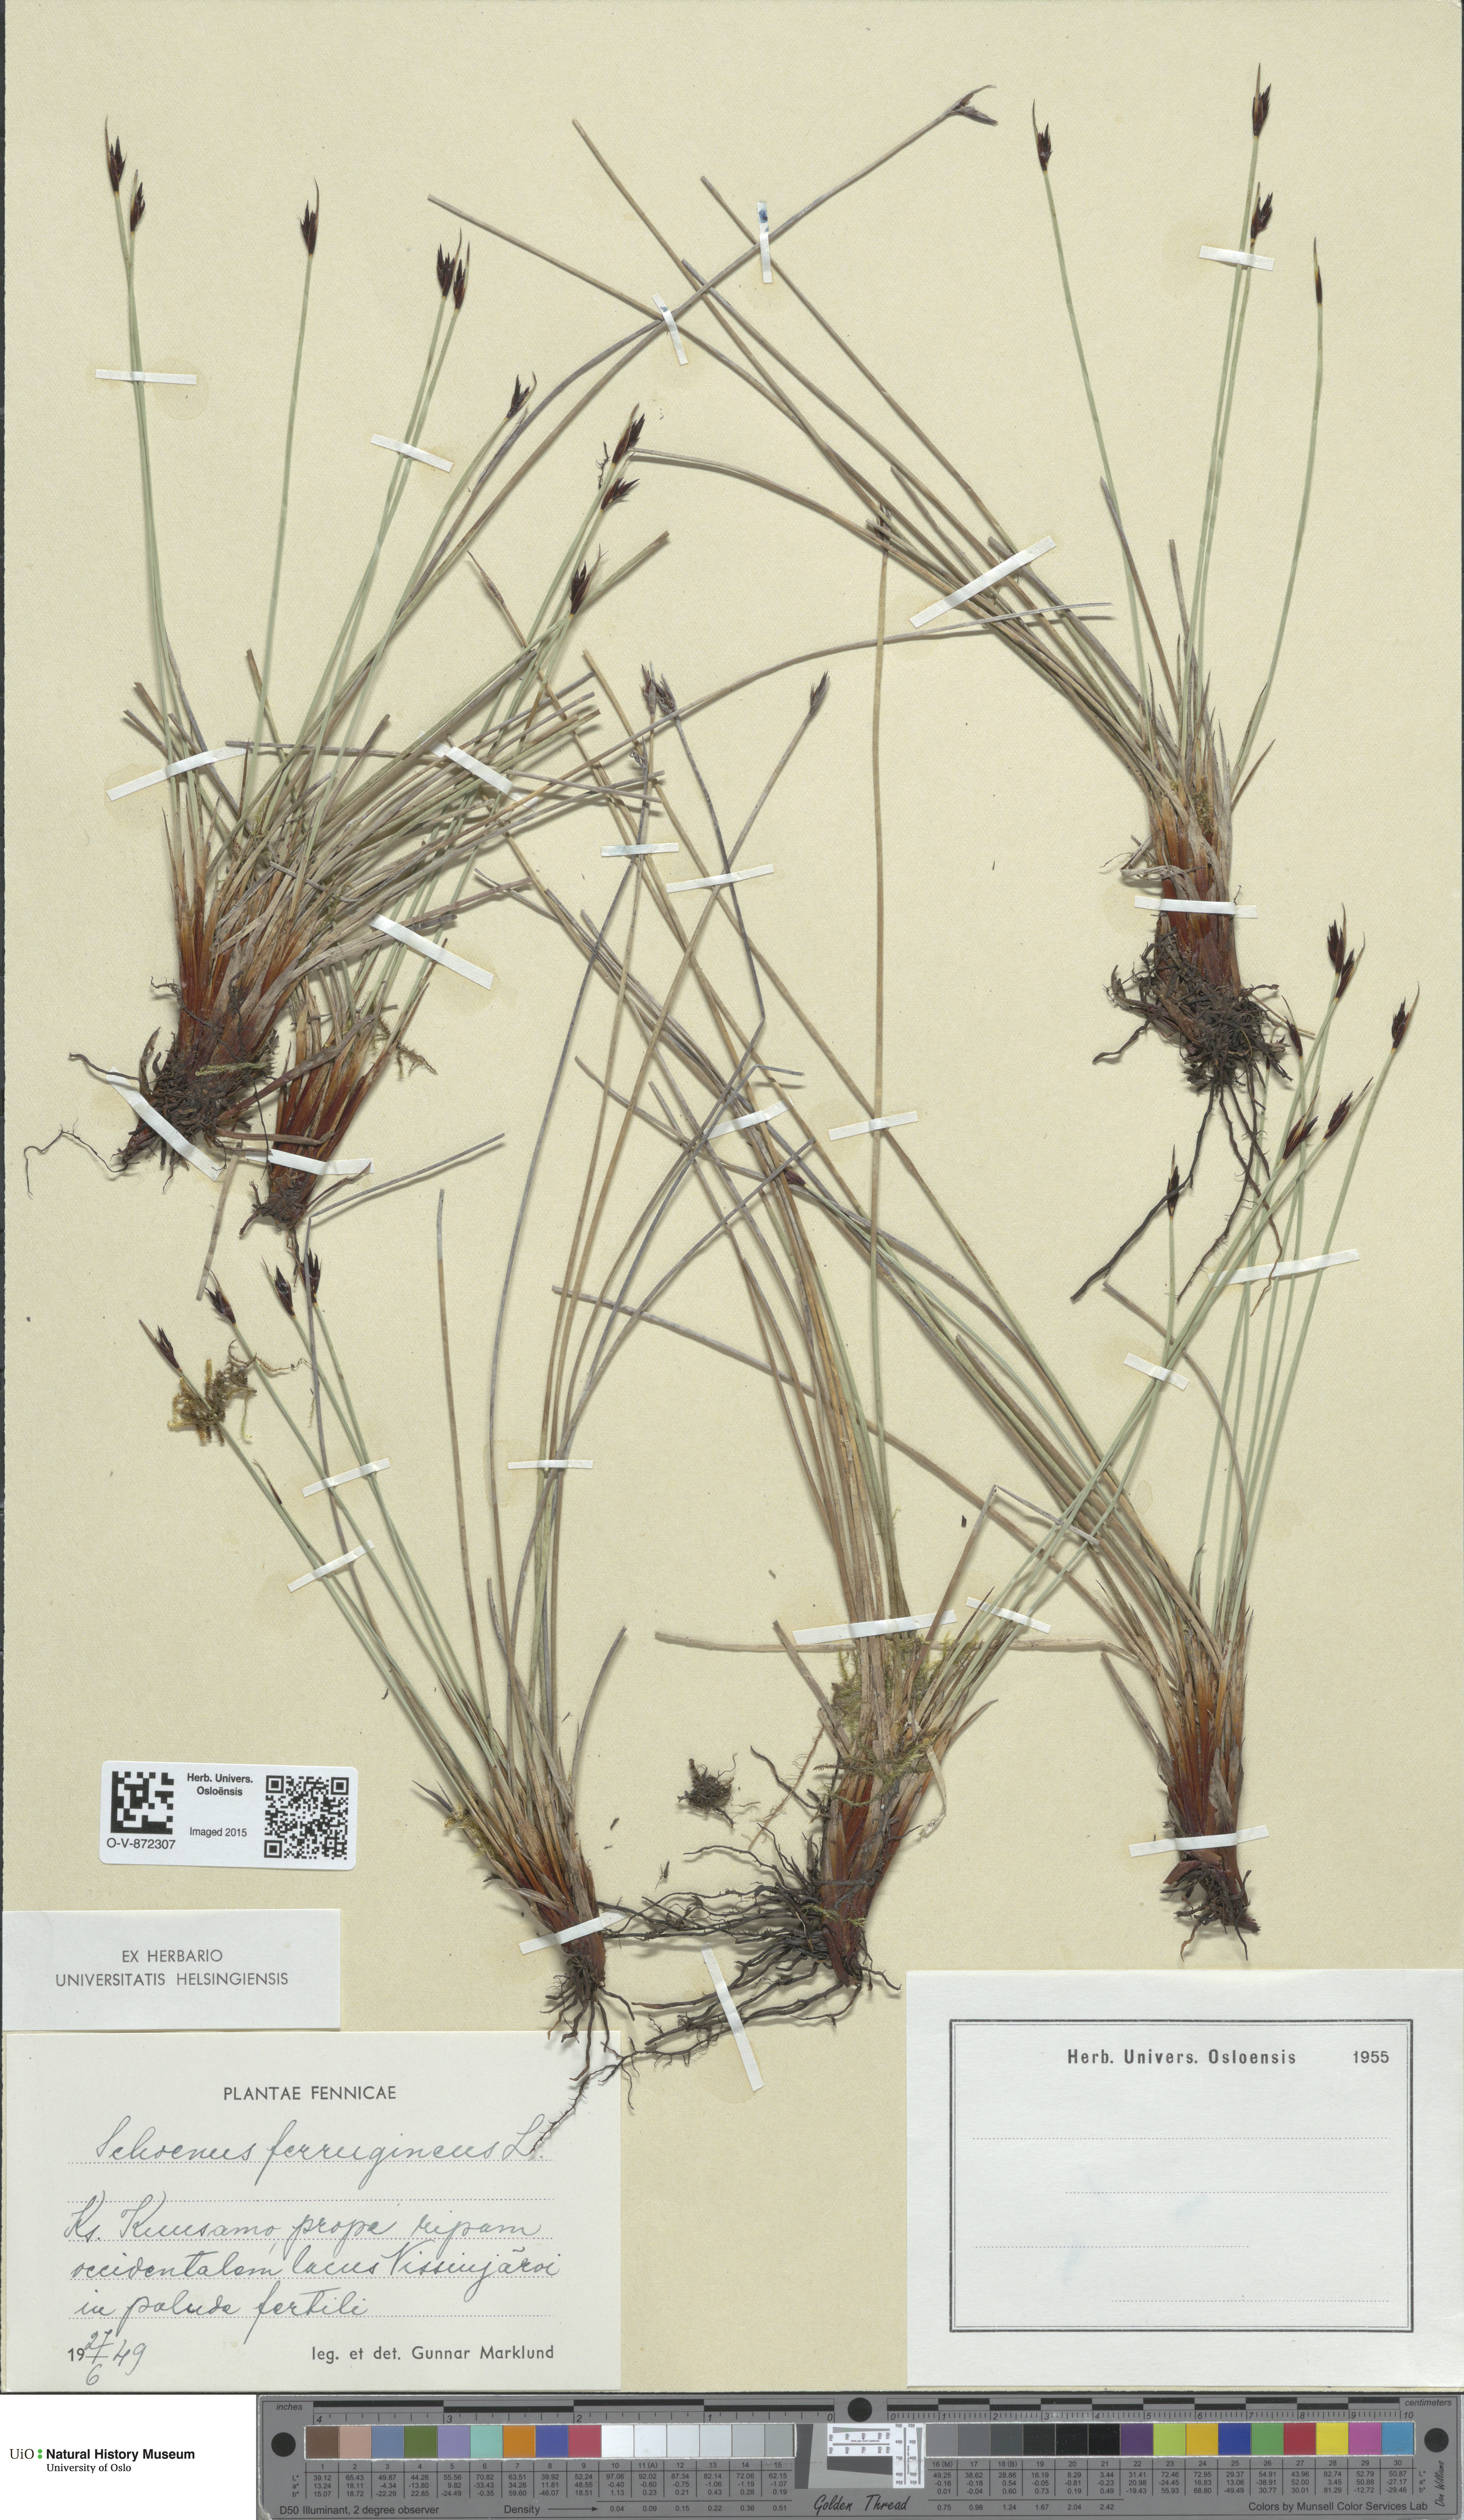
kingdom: Plantae
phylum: Tracheophyta
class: Liliopsida
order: Poales
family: Cyperaceae
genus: Schoenus
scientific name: Schoenus ferrugineus
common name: Brown bog-rush
